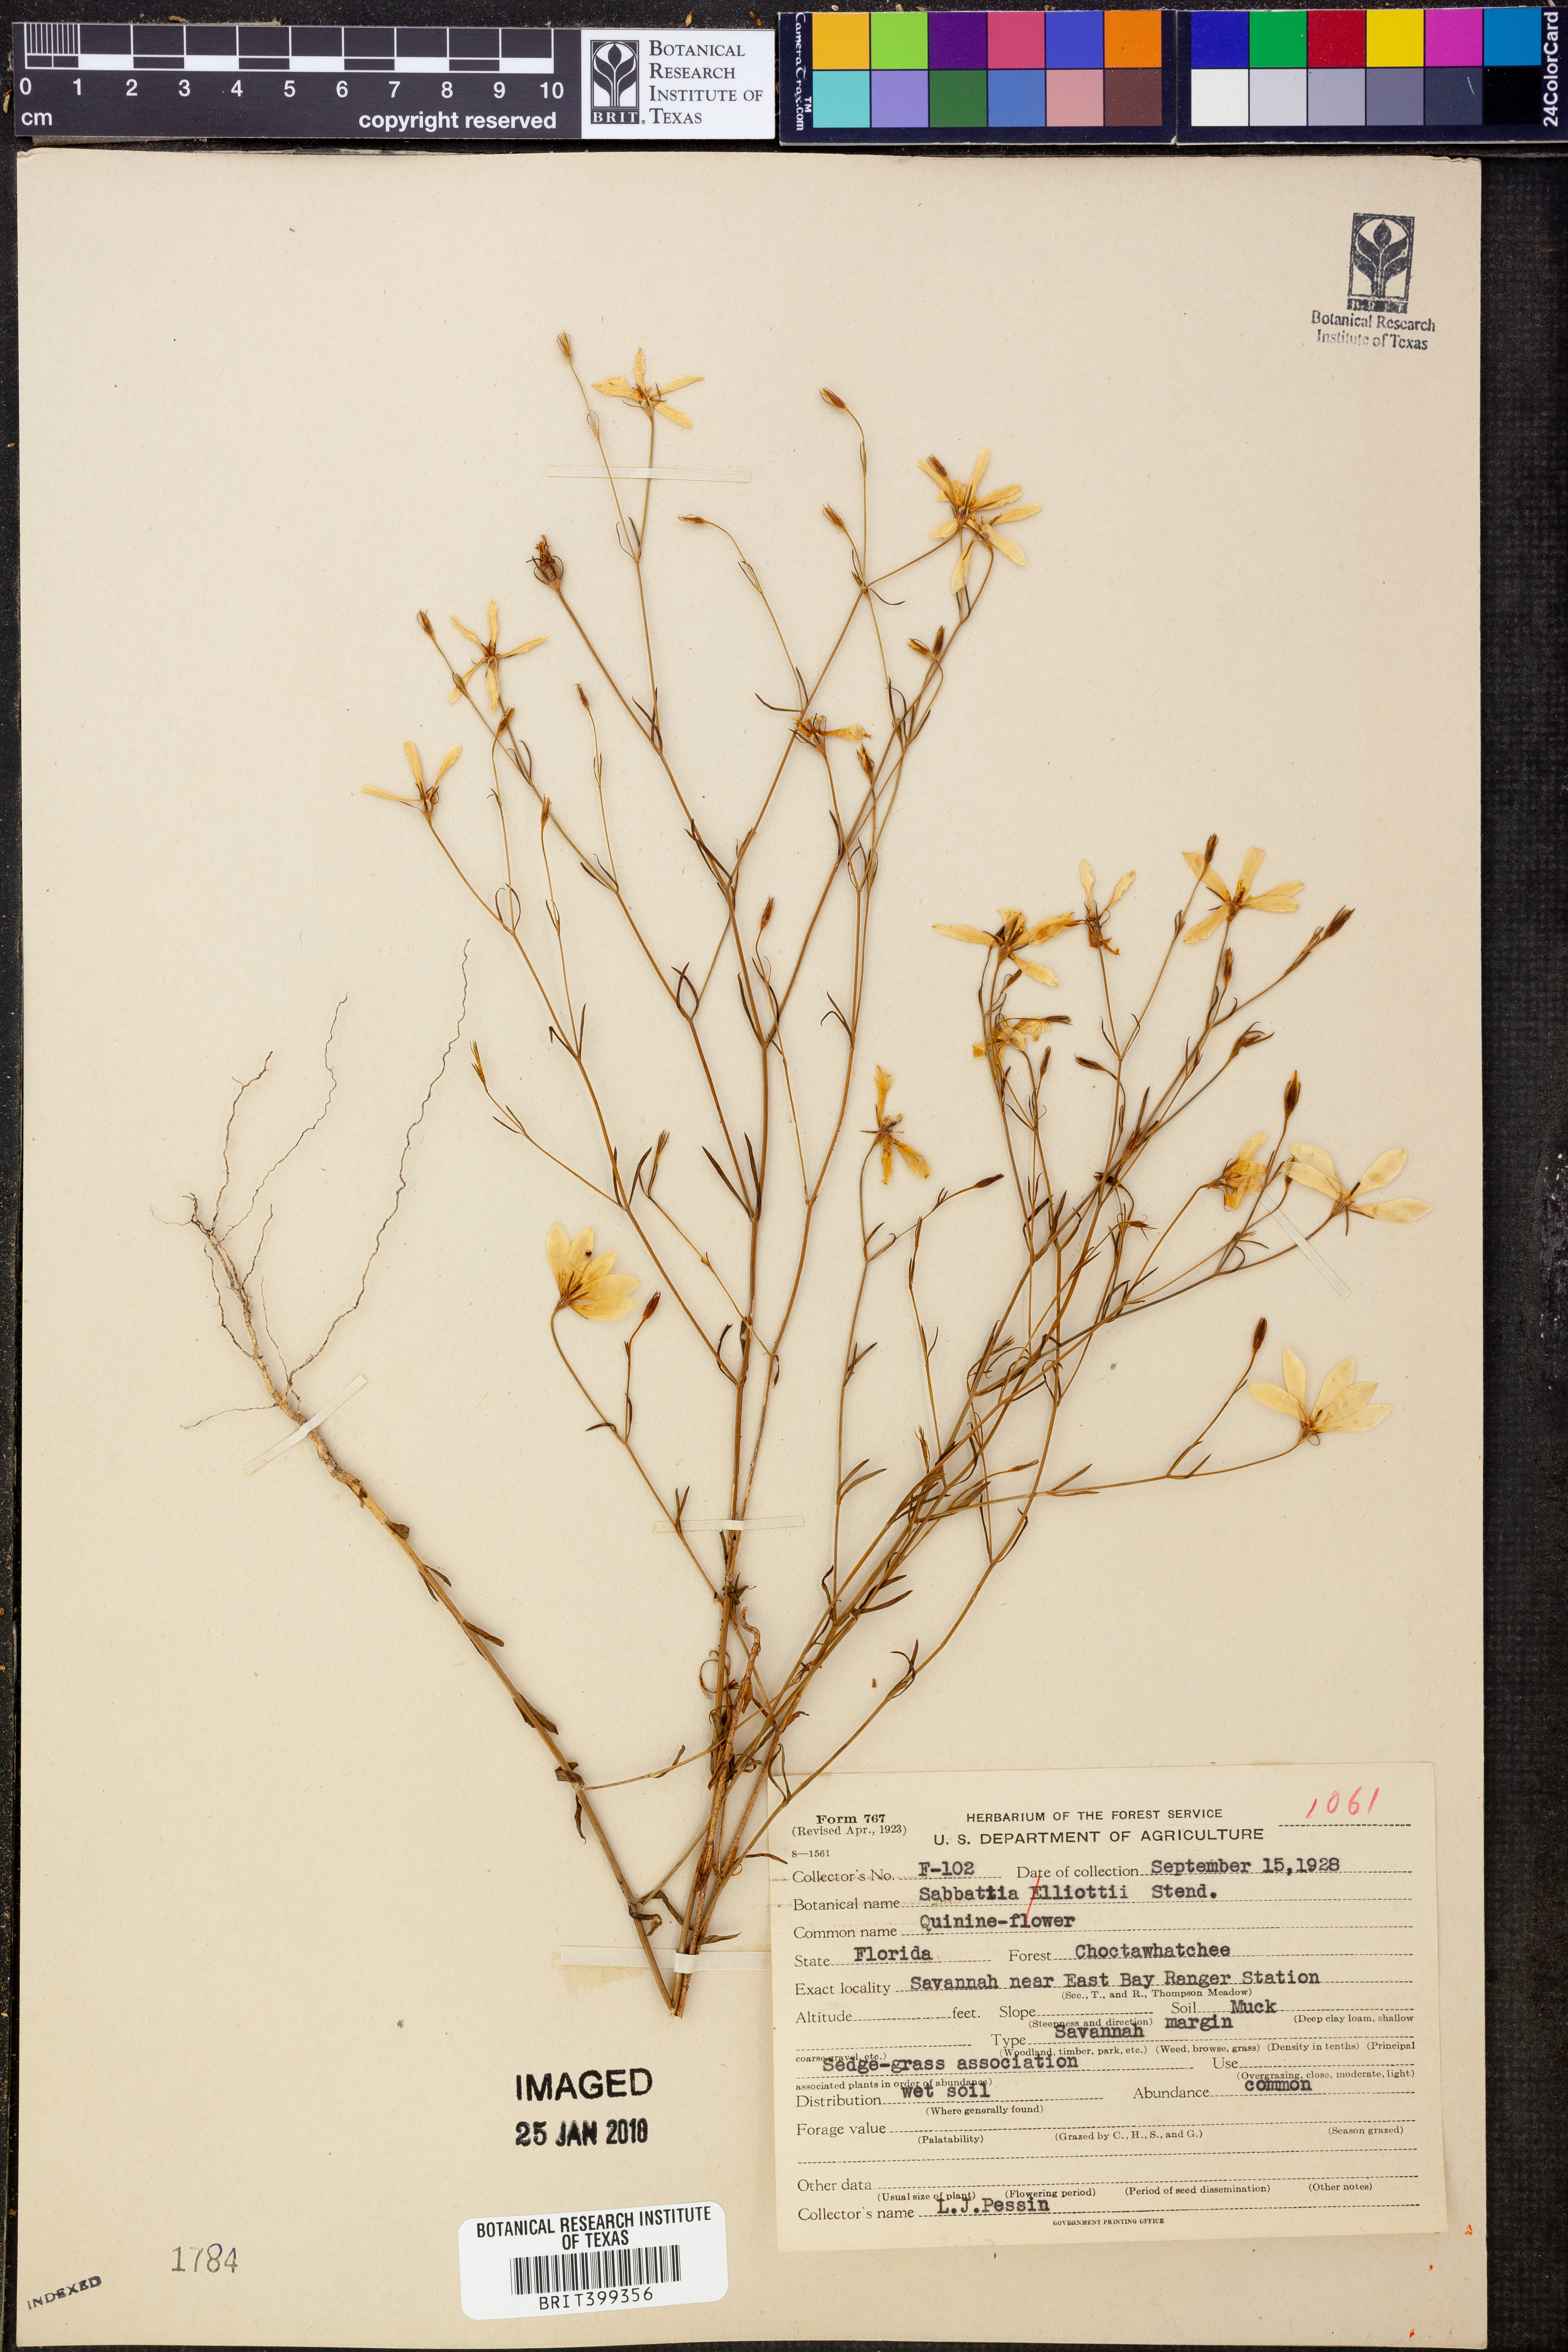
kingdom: Plantae
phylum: Tracheophyta
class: Magnoliopsida
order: Gentianales
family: Gentianaceae
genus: Sabatia
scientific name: Sabatia brevifolia
